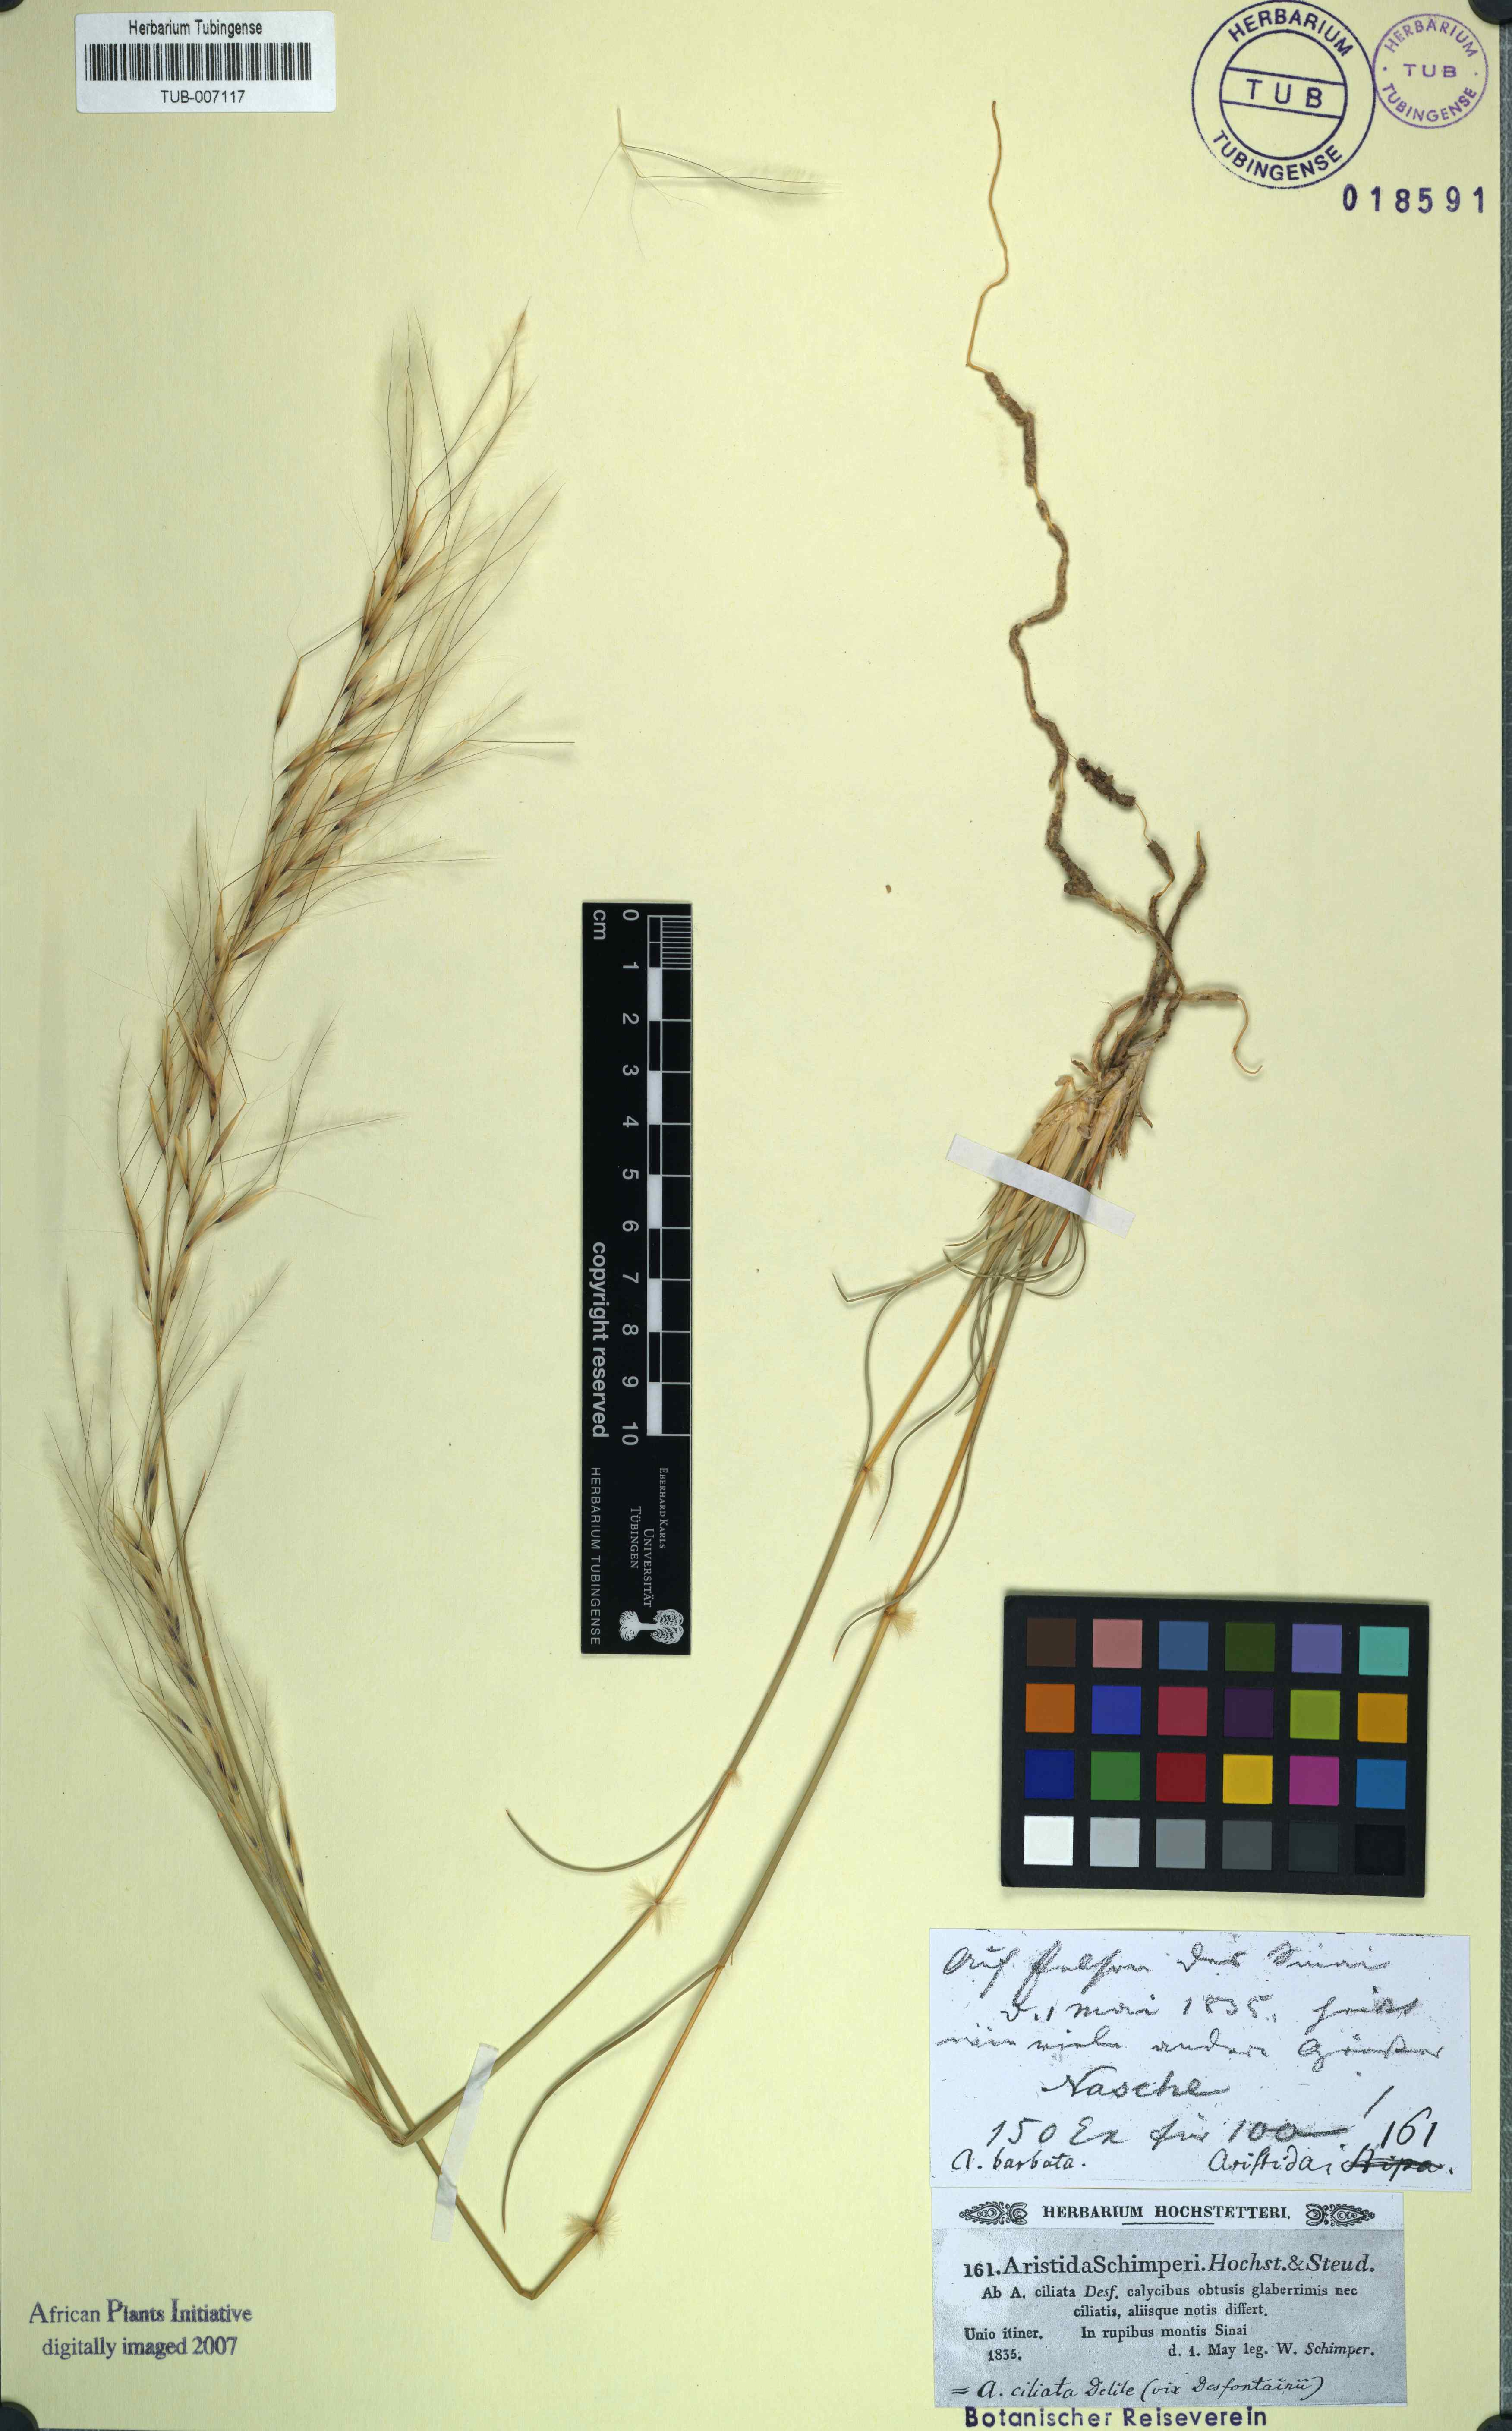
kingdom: Plantae
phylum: Tracheophyta
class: Liliopsida
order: Poales
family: Poaceae
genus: Stipagrostis
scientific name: Stipagrostis ciliata
